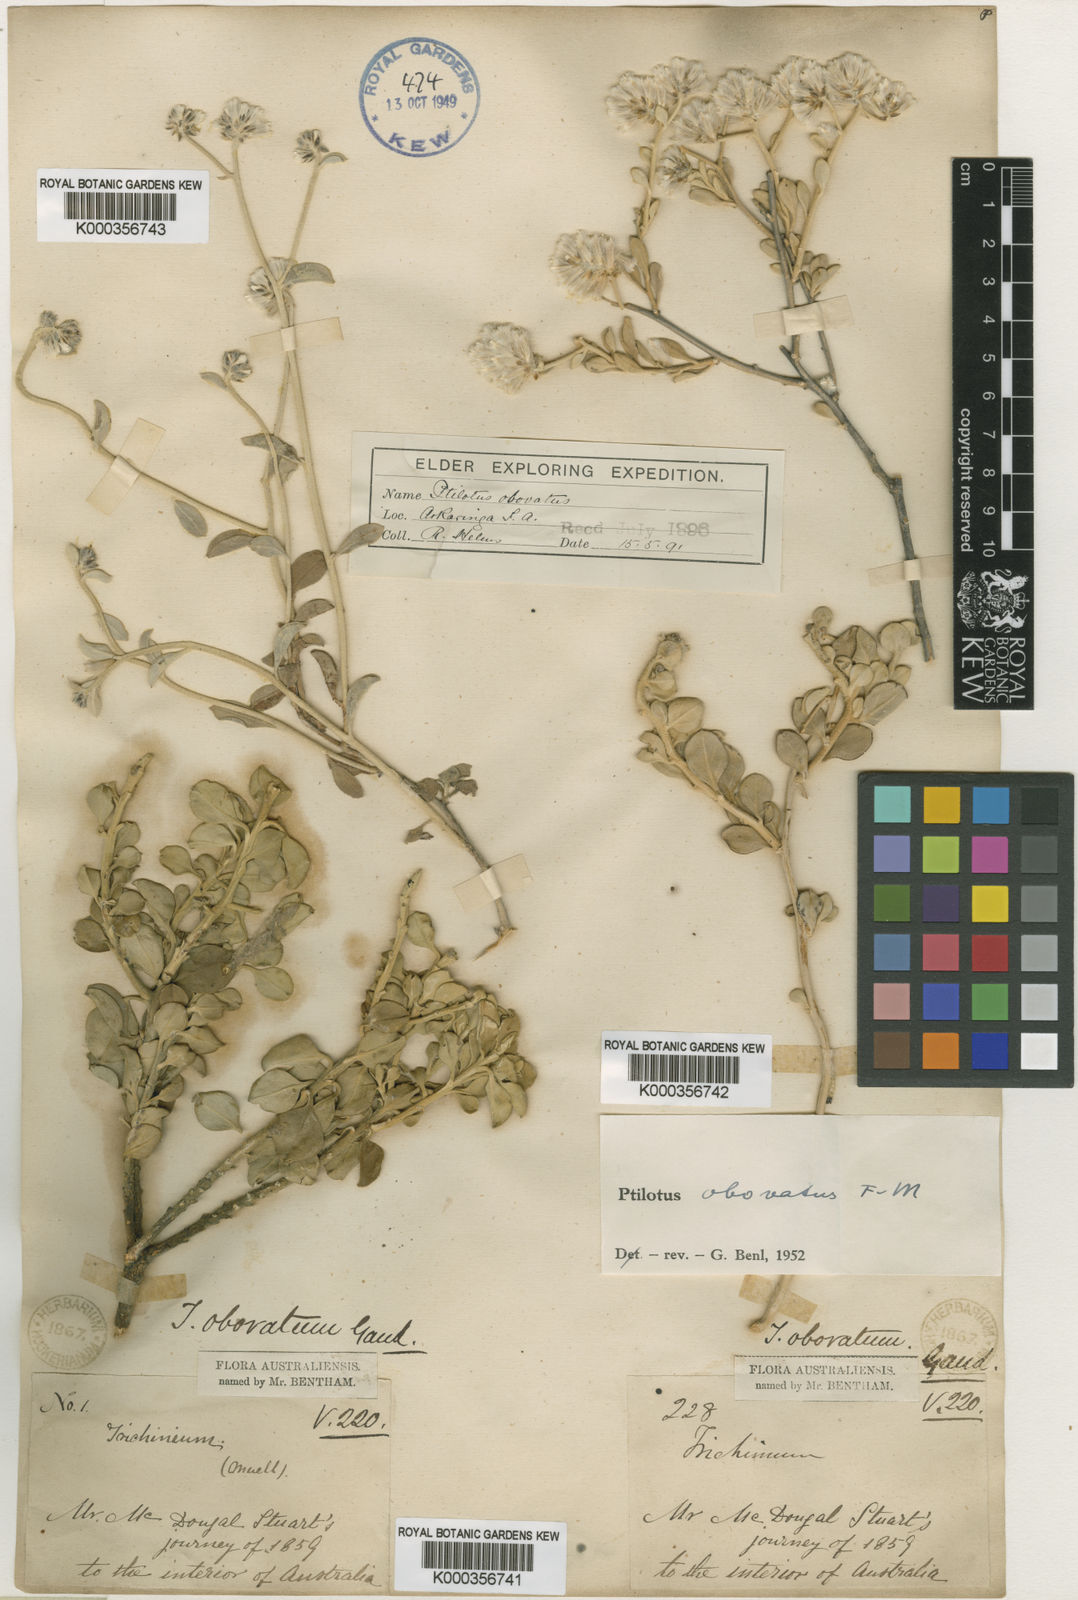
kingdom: Plantae
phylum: Tracheophyta
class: Magnoliopsida
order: Caryophyllales
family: Amaranthaceae
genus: Ptilotus
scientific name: Ptilotus obovatus
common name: Cottonbush
